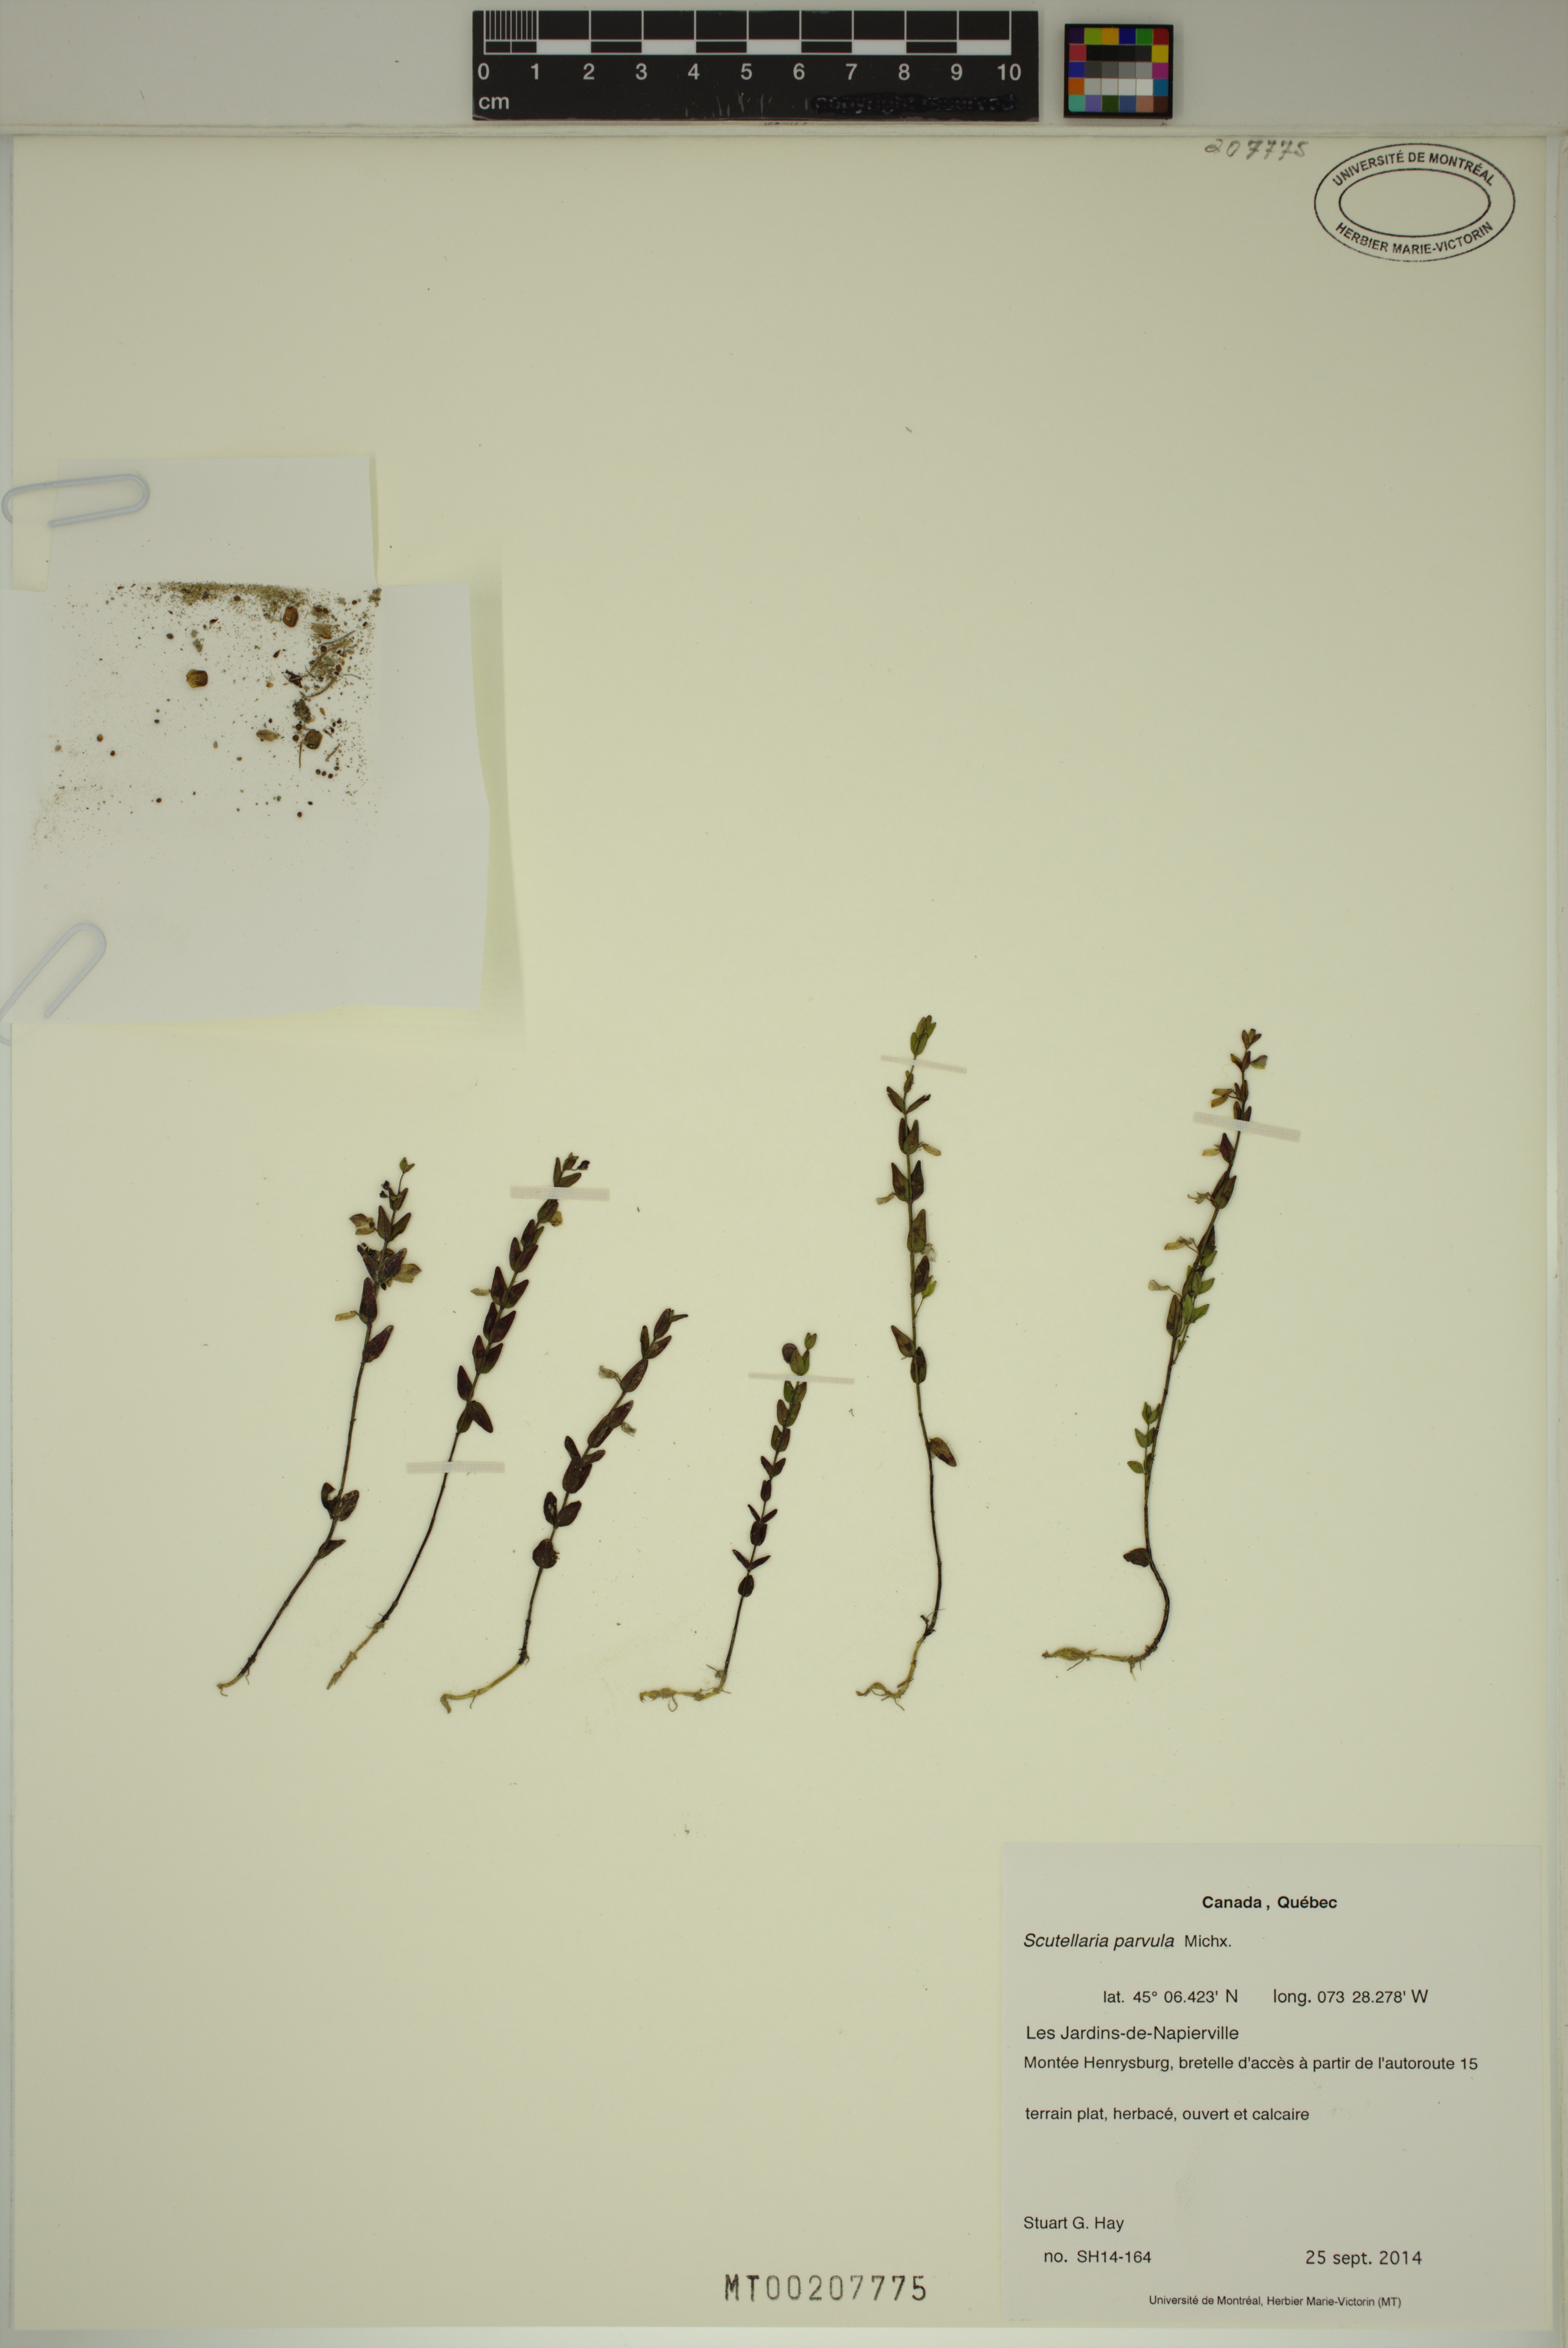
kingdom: Plantae
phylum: Tracheophyta
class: Magnoliopsida
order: Lamiales
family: Lamiaceae
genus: Scutellaria
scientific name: Scutellaria parvula
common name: Little scullcap
